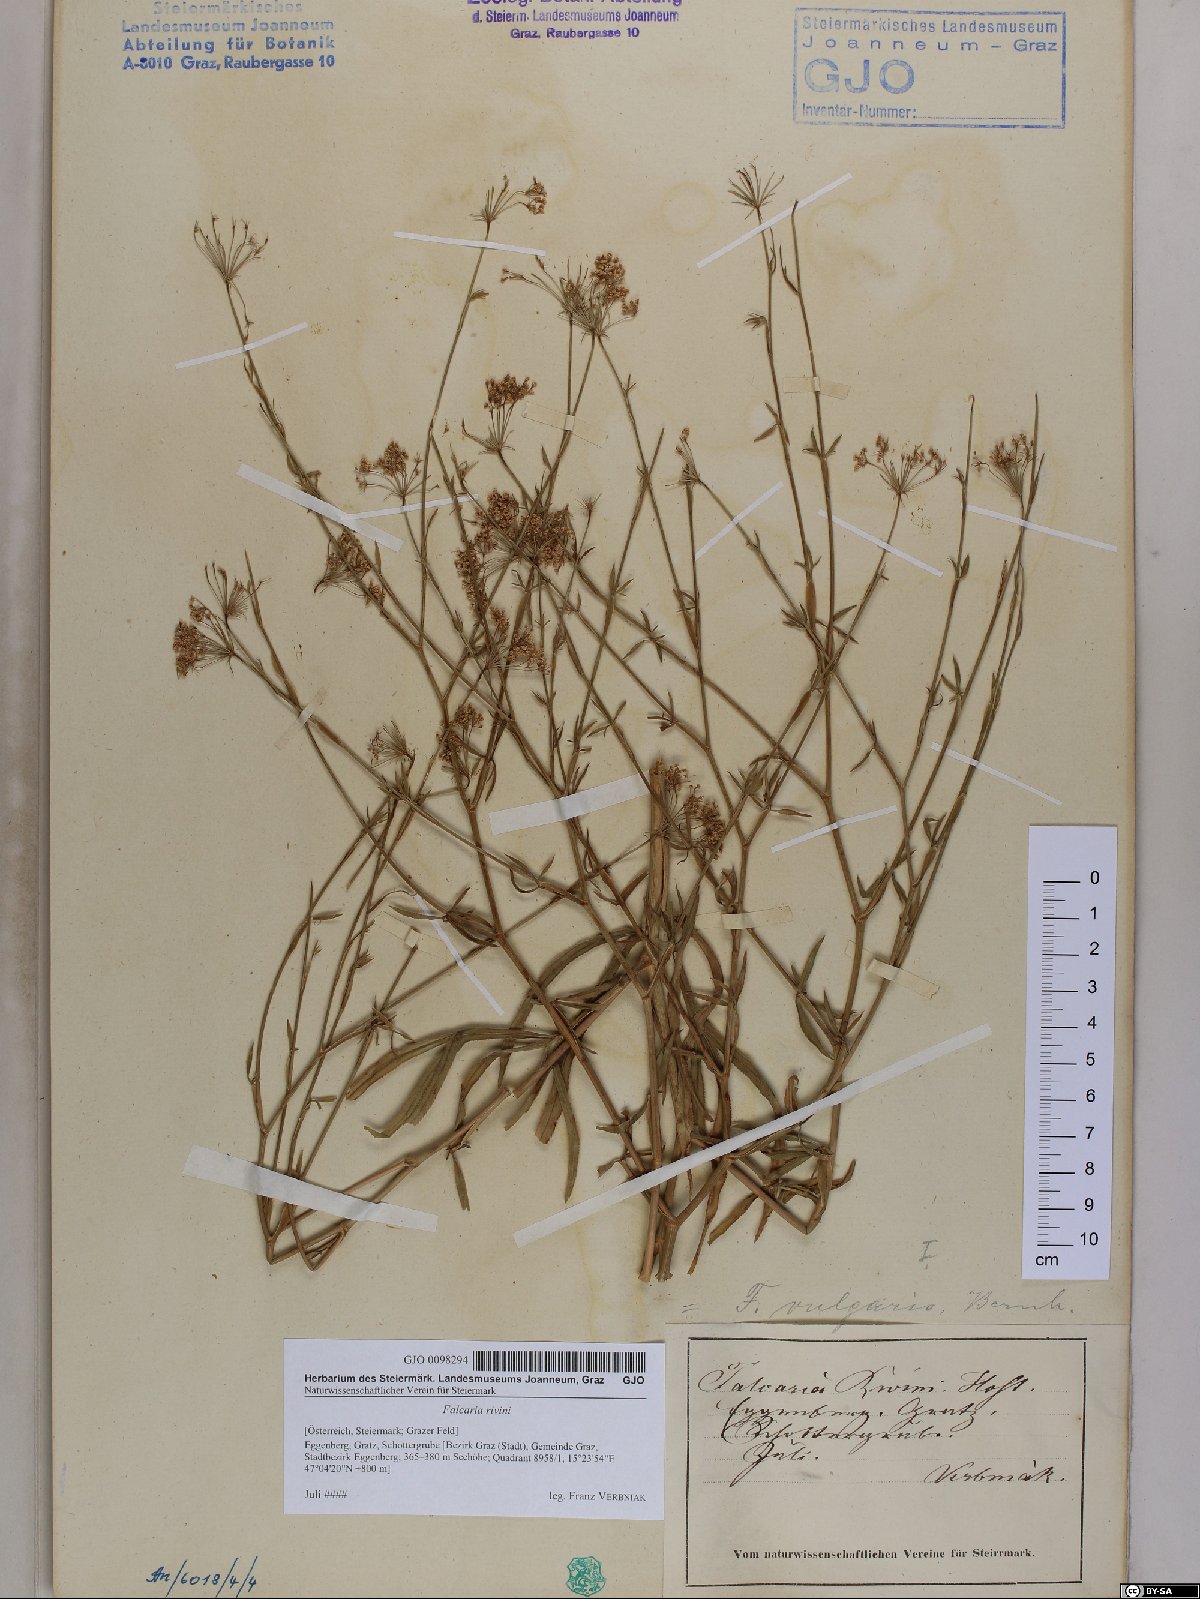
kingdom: Plantae
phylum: Tracheophyta
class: Magnoliopsida
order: Apiales
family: Apiaceae
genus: Falcaria
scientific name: Falcaria vulgaris
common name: Longleaf
